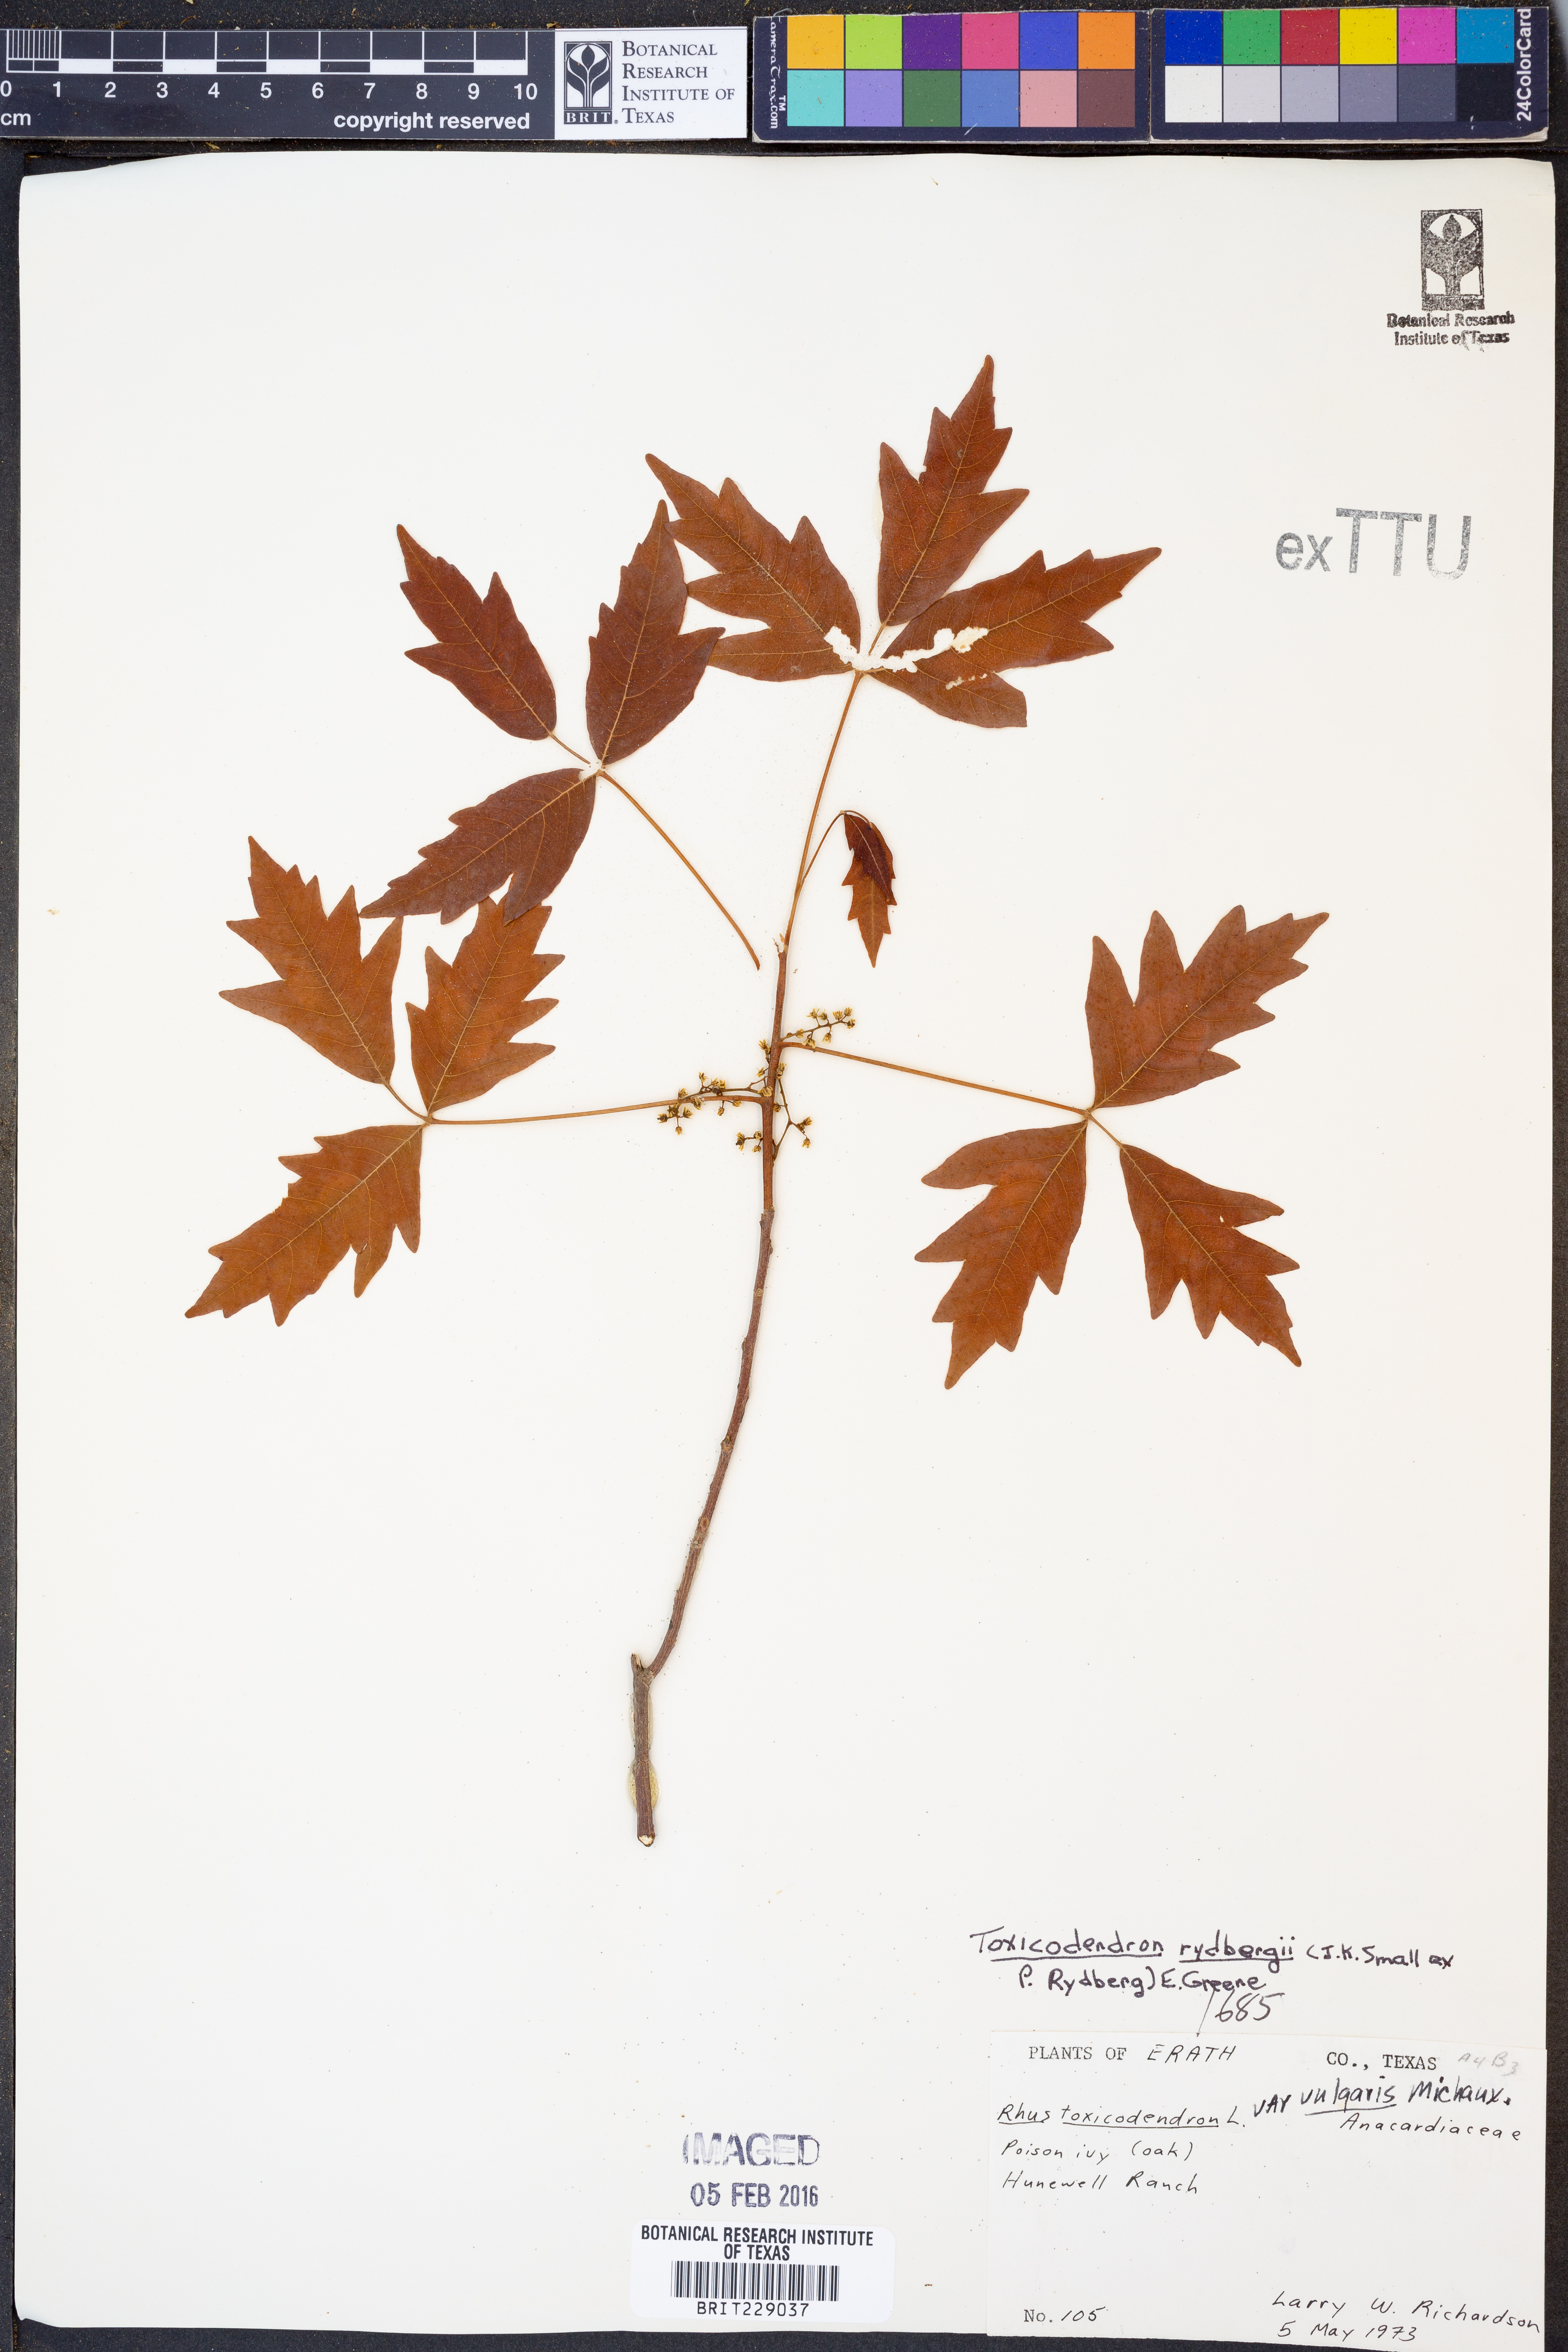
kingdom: Plantae
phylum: Tracheophyta
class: Magnoliopsida
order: Sapindales
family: Anacardiaceae
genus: Toxicodendron
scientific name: Toxicodendron rydbergii
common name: Rydberg's poison-ivy
